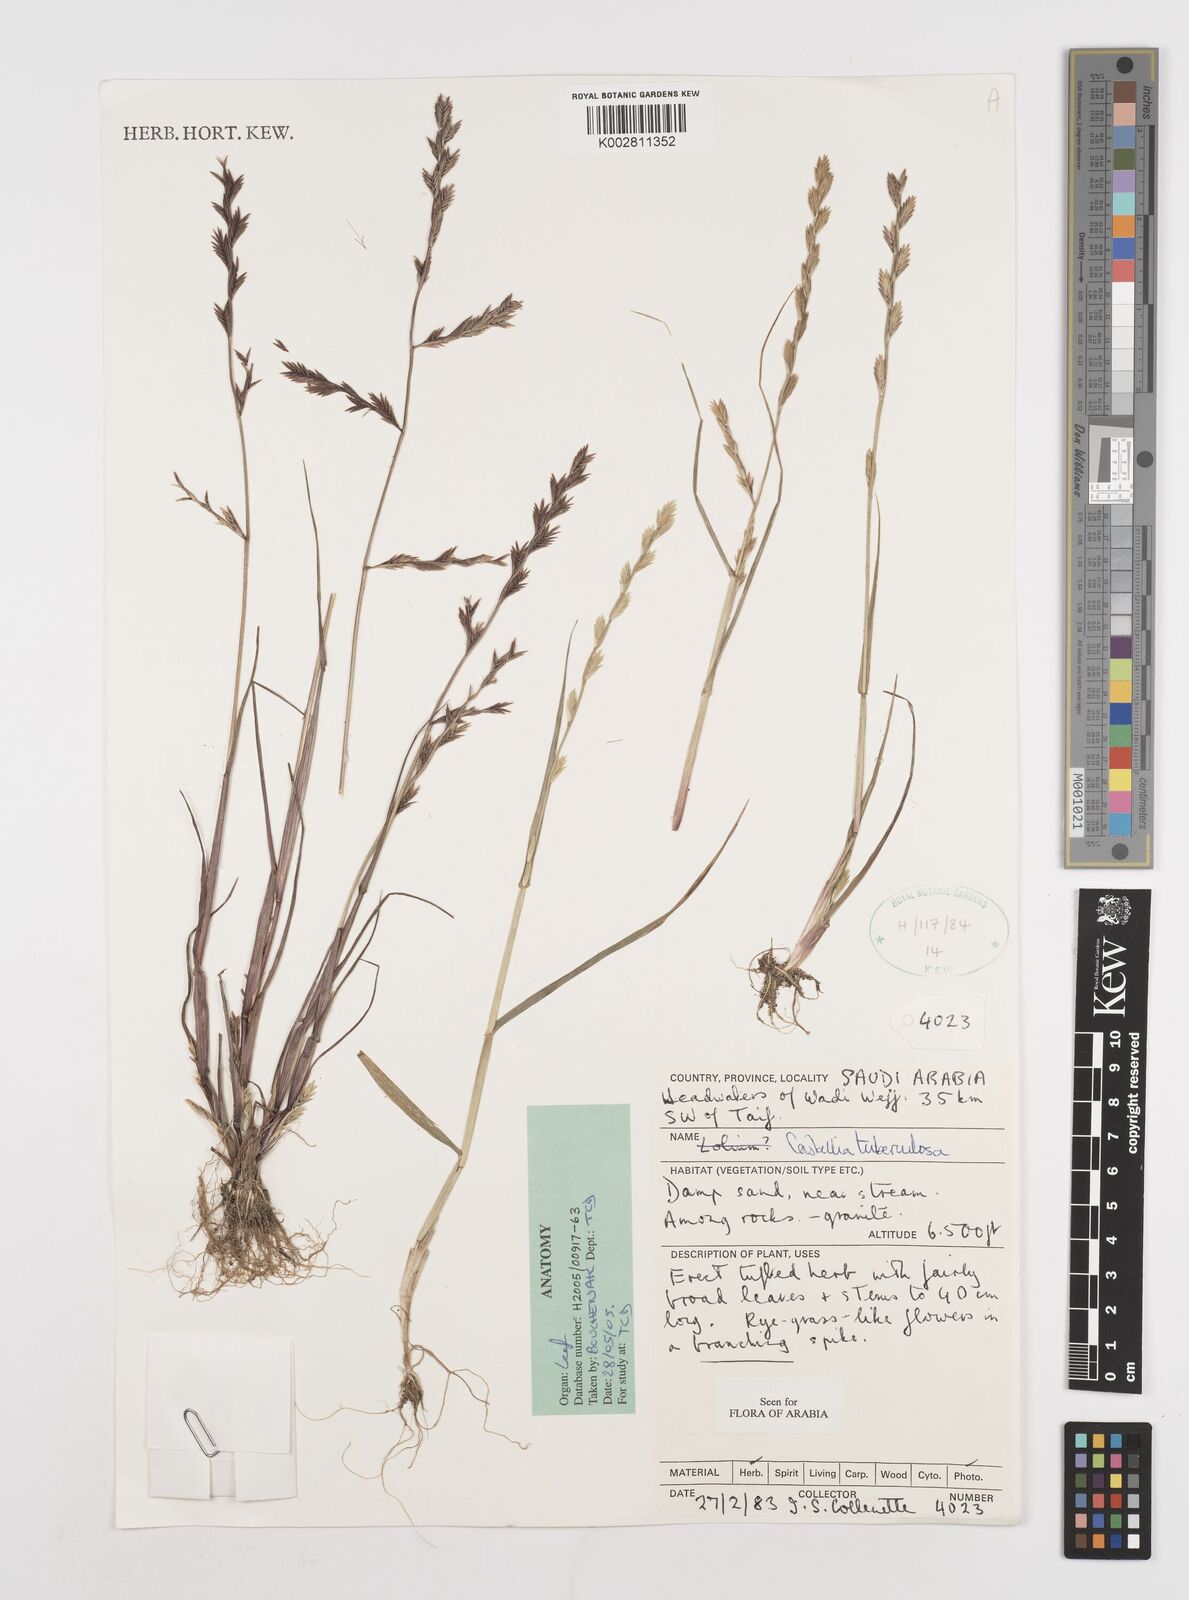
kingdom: Plantae
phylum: Tracheophyta
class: Liliopsida
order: Poales
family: Poaceae
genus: Castellia
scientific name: Castellia tuberculosa
